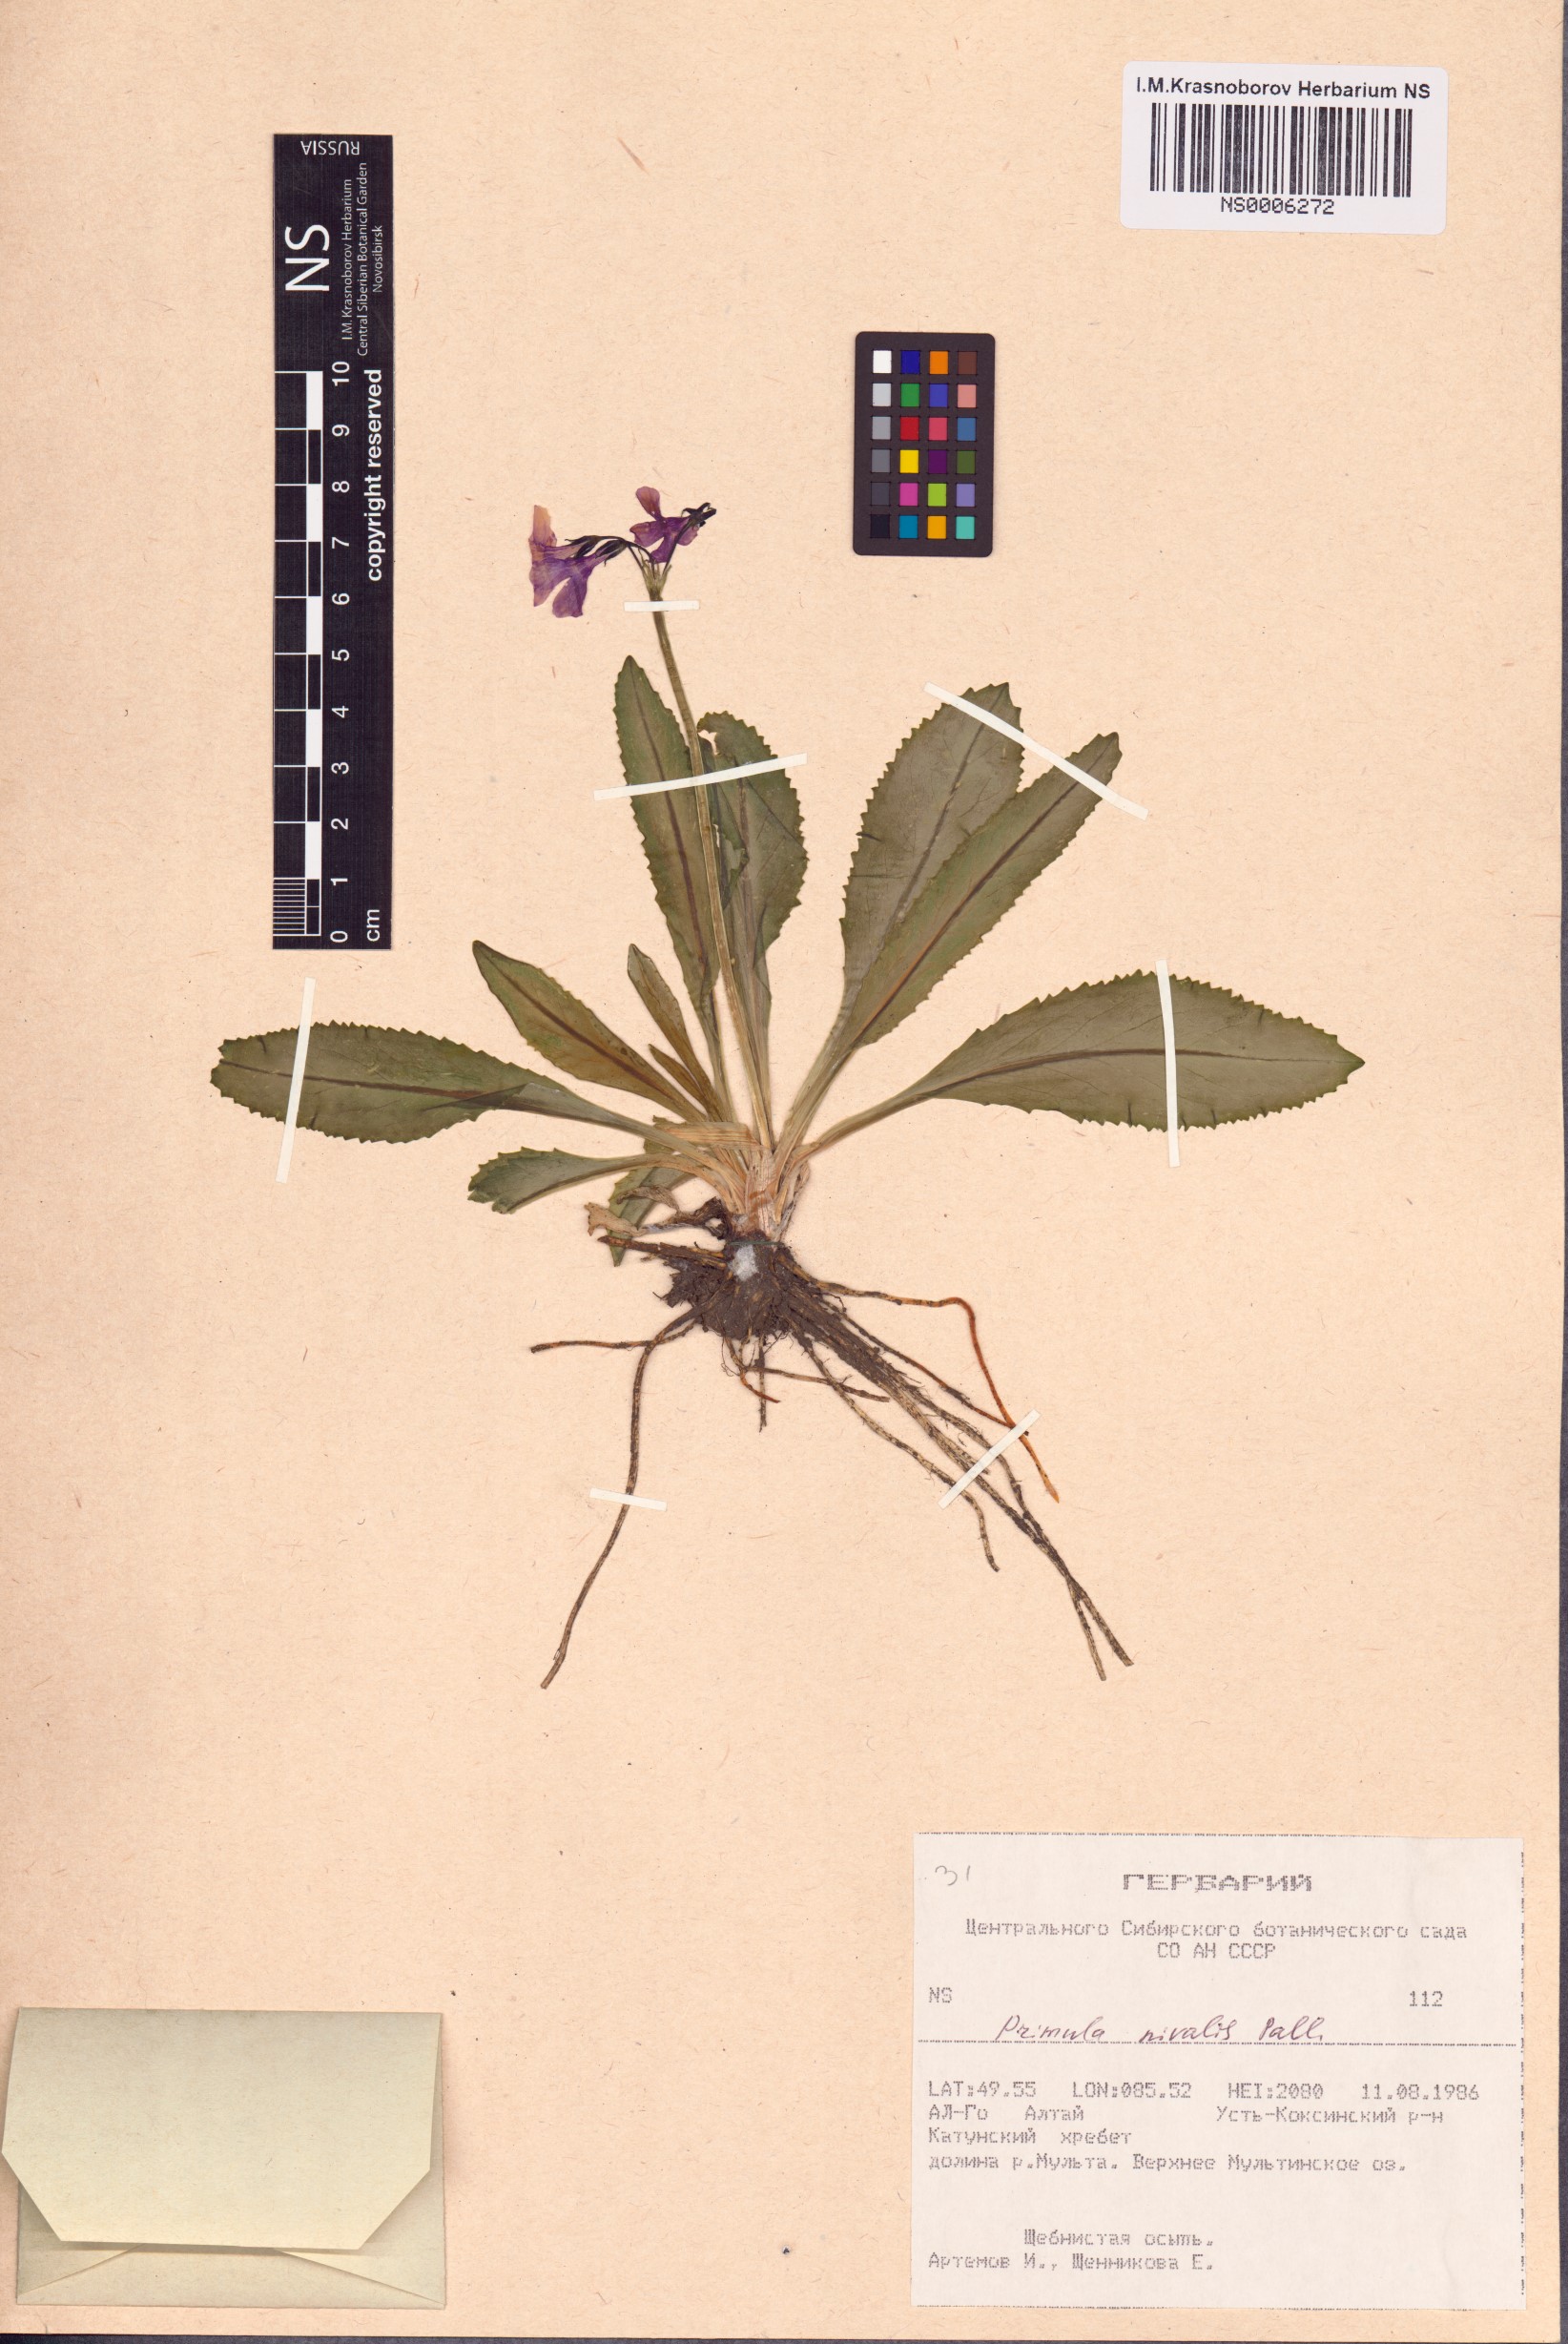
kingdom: Plantae
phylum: Tracheophyta
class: Magnoliopsida
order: Ericales
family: Primulaceae
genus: Primula
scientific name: Primula nivalis
